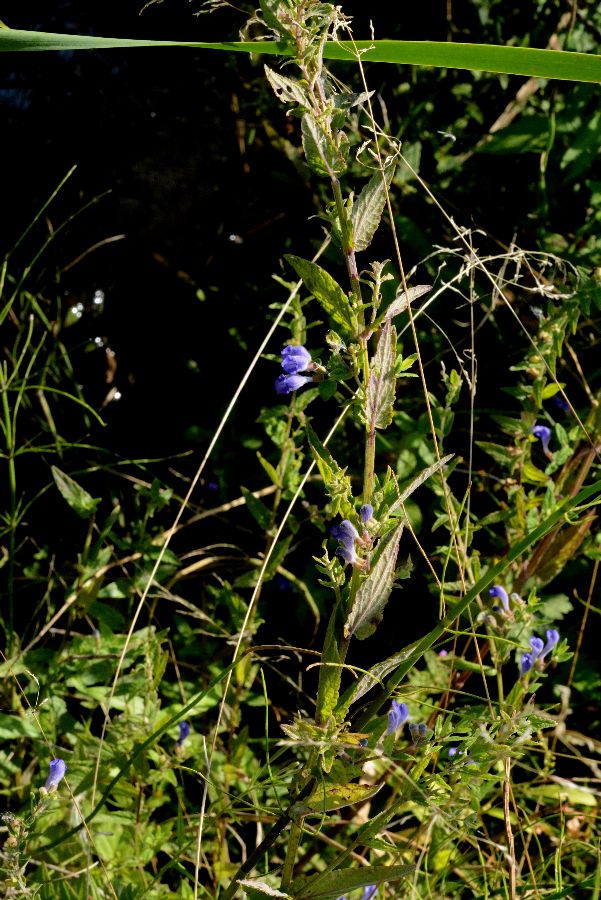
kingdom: Plantae
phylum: Tracheophyta
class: Magnoliopsida
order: Lamiales
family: Lamiaceae
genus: Scutellaria
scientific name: Scutellaria galericulata
